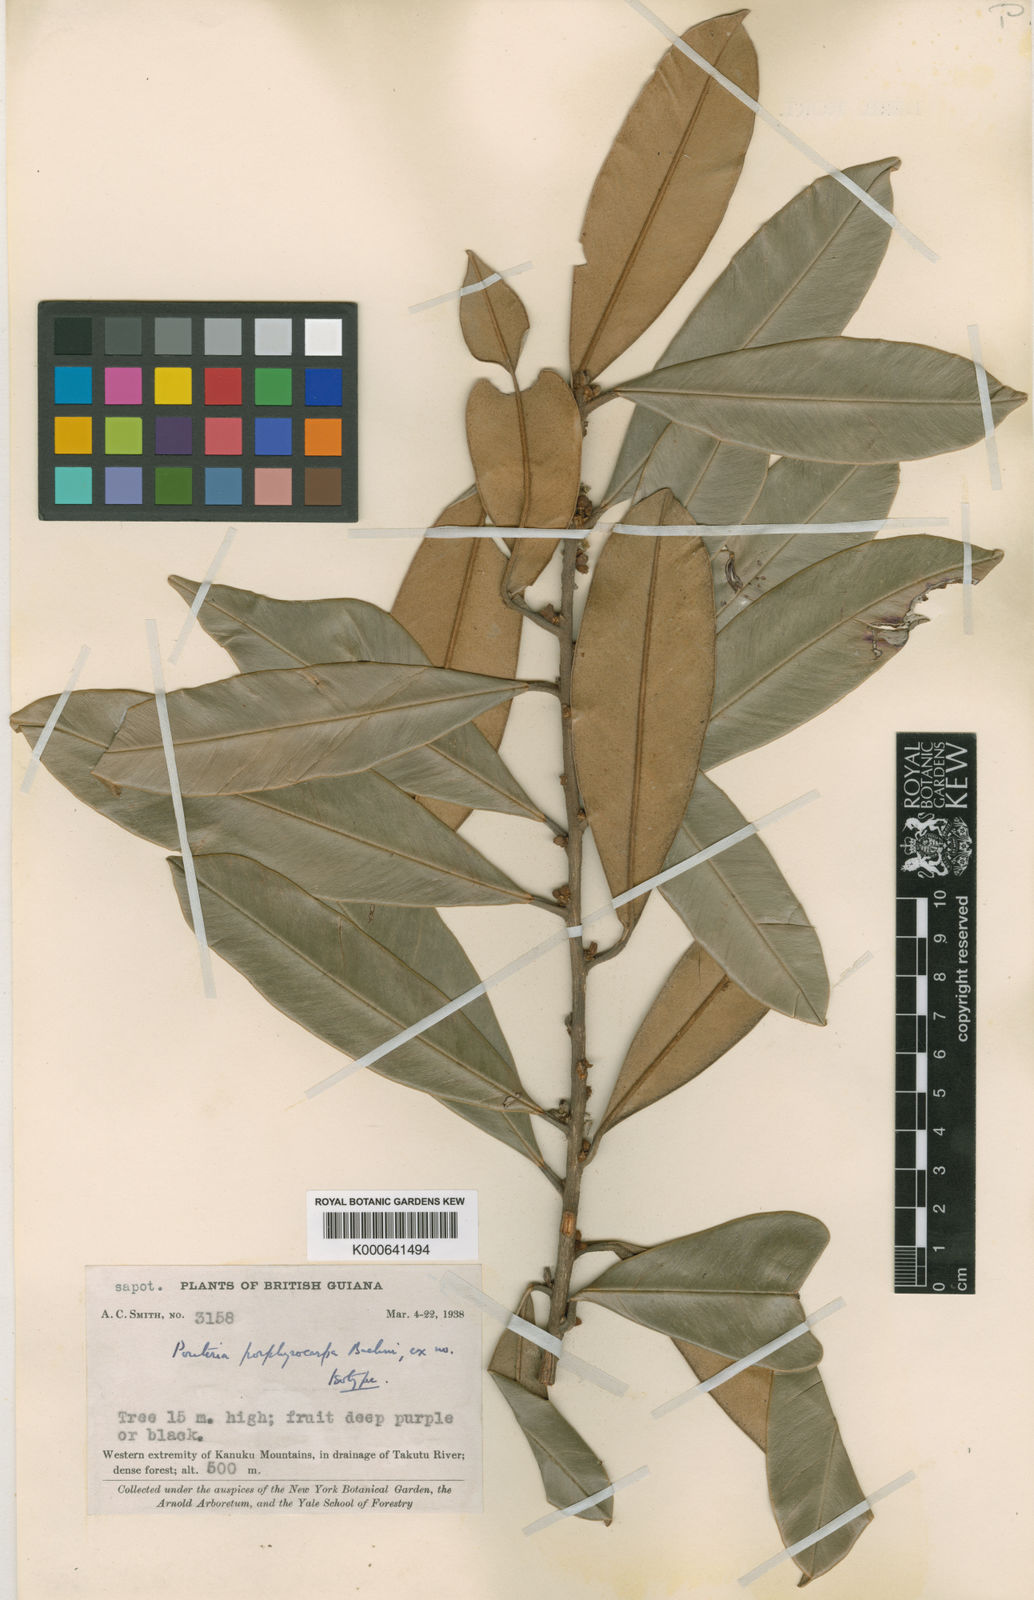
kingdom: Plantae
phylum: Tracheophyta
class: Magnoliopsida
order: Ericales
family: Sapotaceae
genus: Micropholis
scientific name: Micropholis porphyrocarpa
